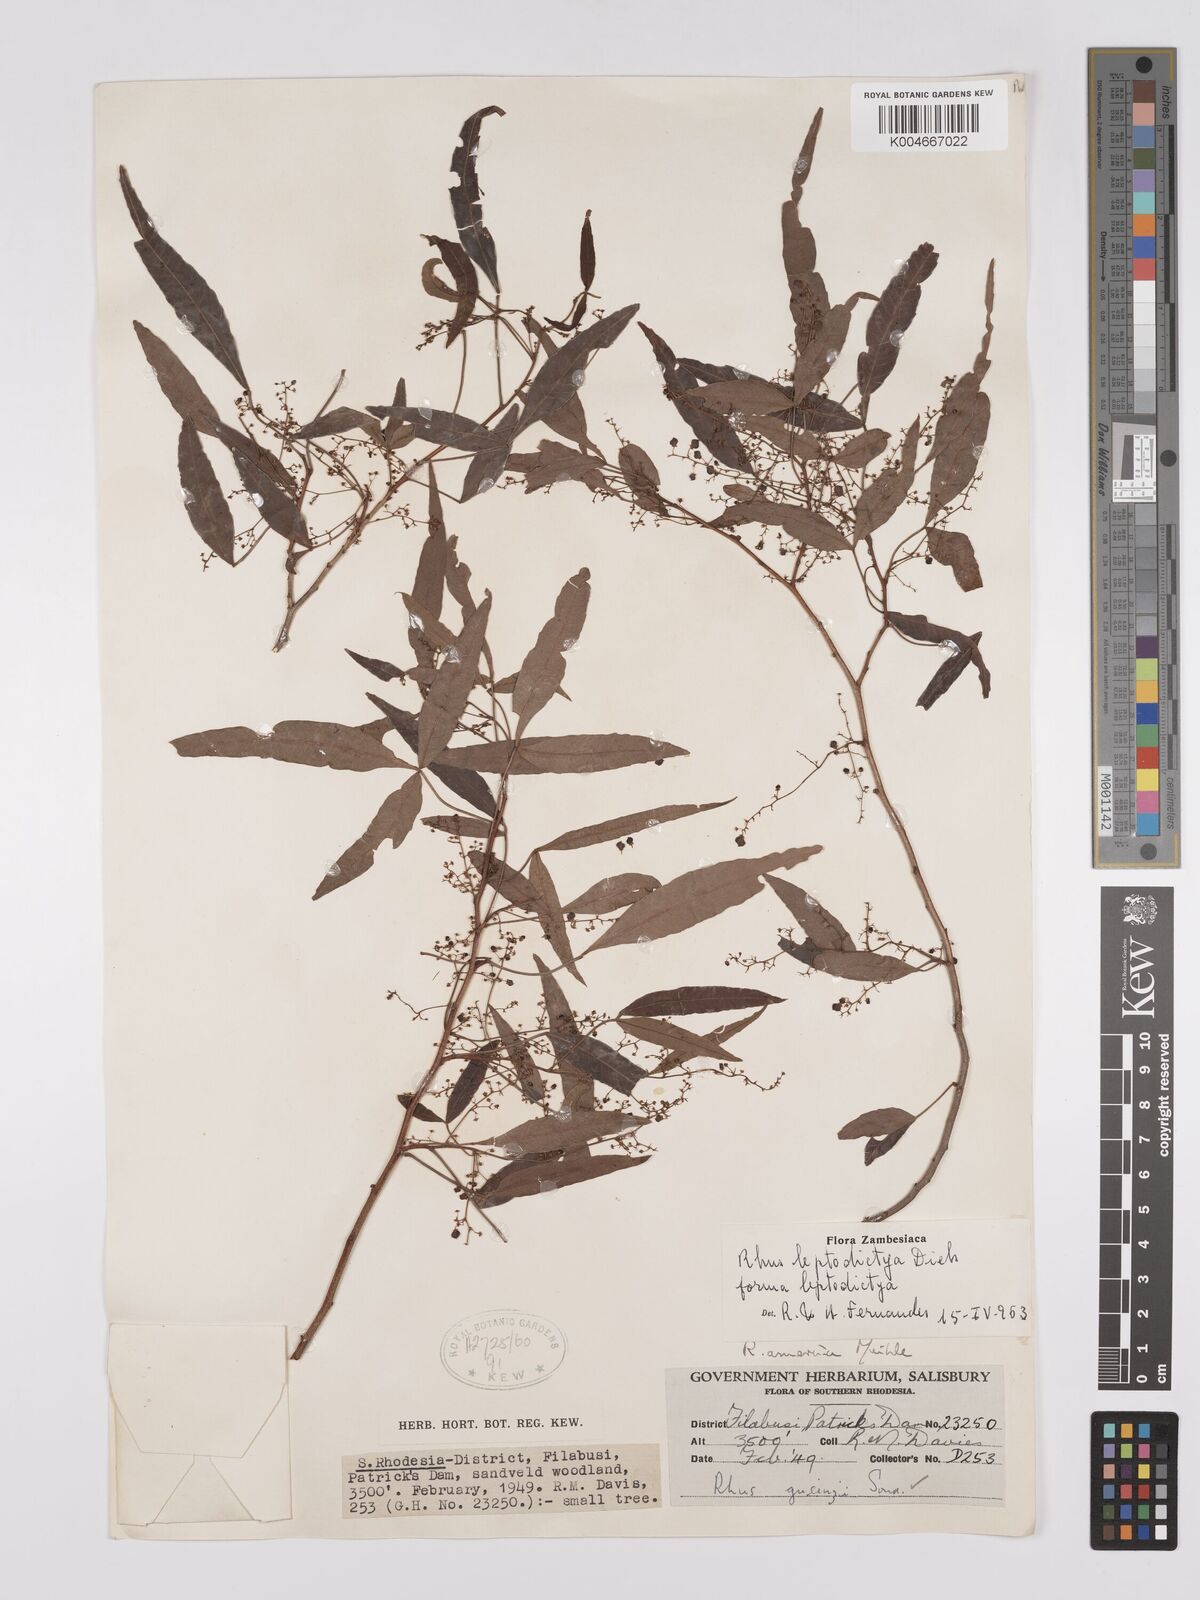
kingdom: Plantae
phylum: Tracheophyta
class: Magnoliopsida
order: Sapindales
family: Anacardiaceae
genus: Searsia
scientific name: Searsia leptodictya
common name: Mountain karee
